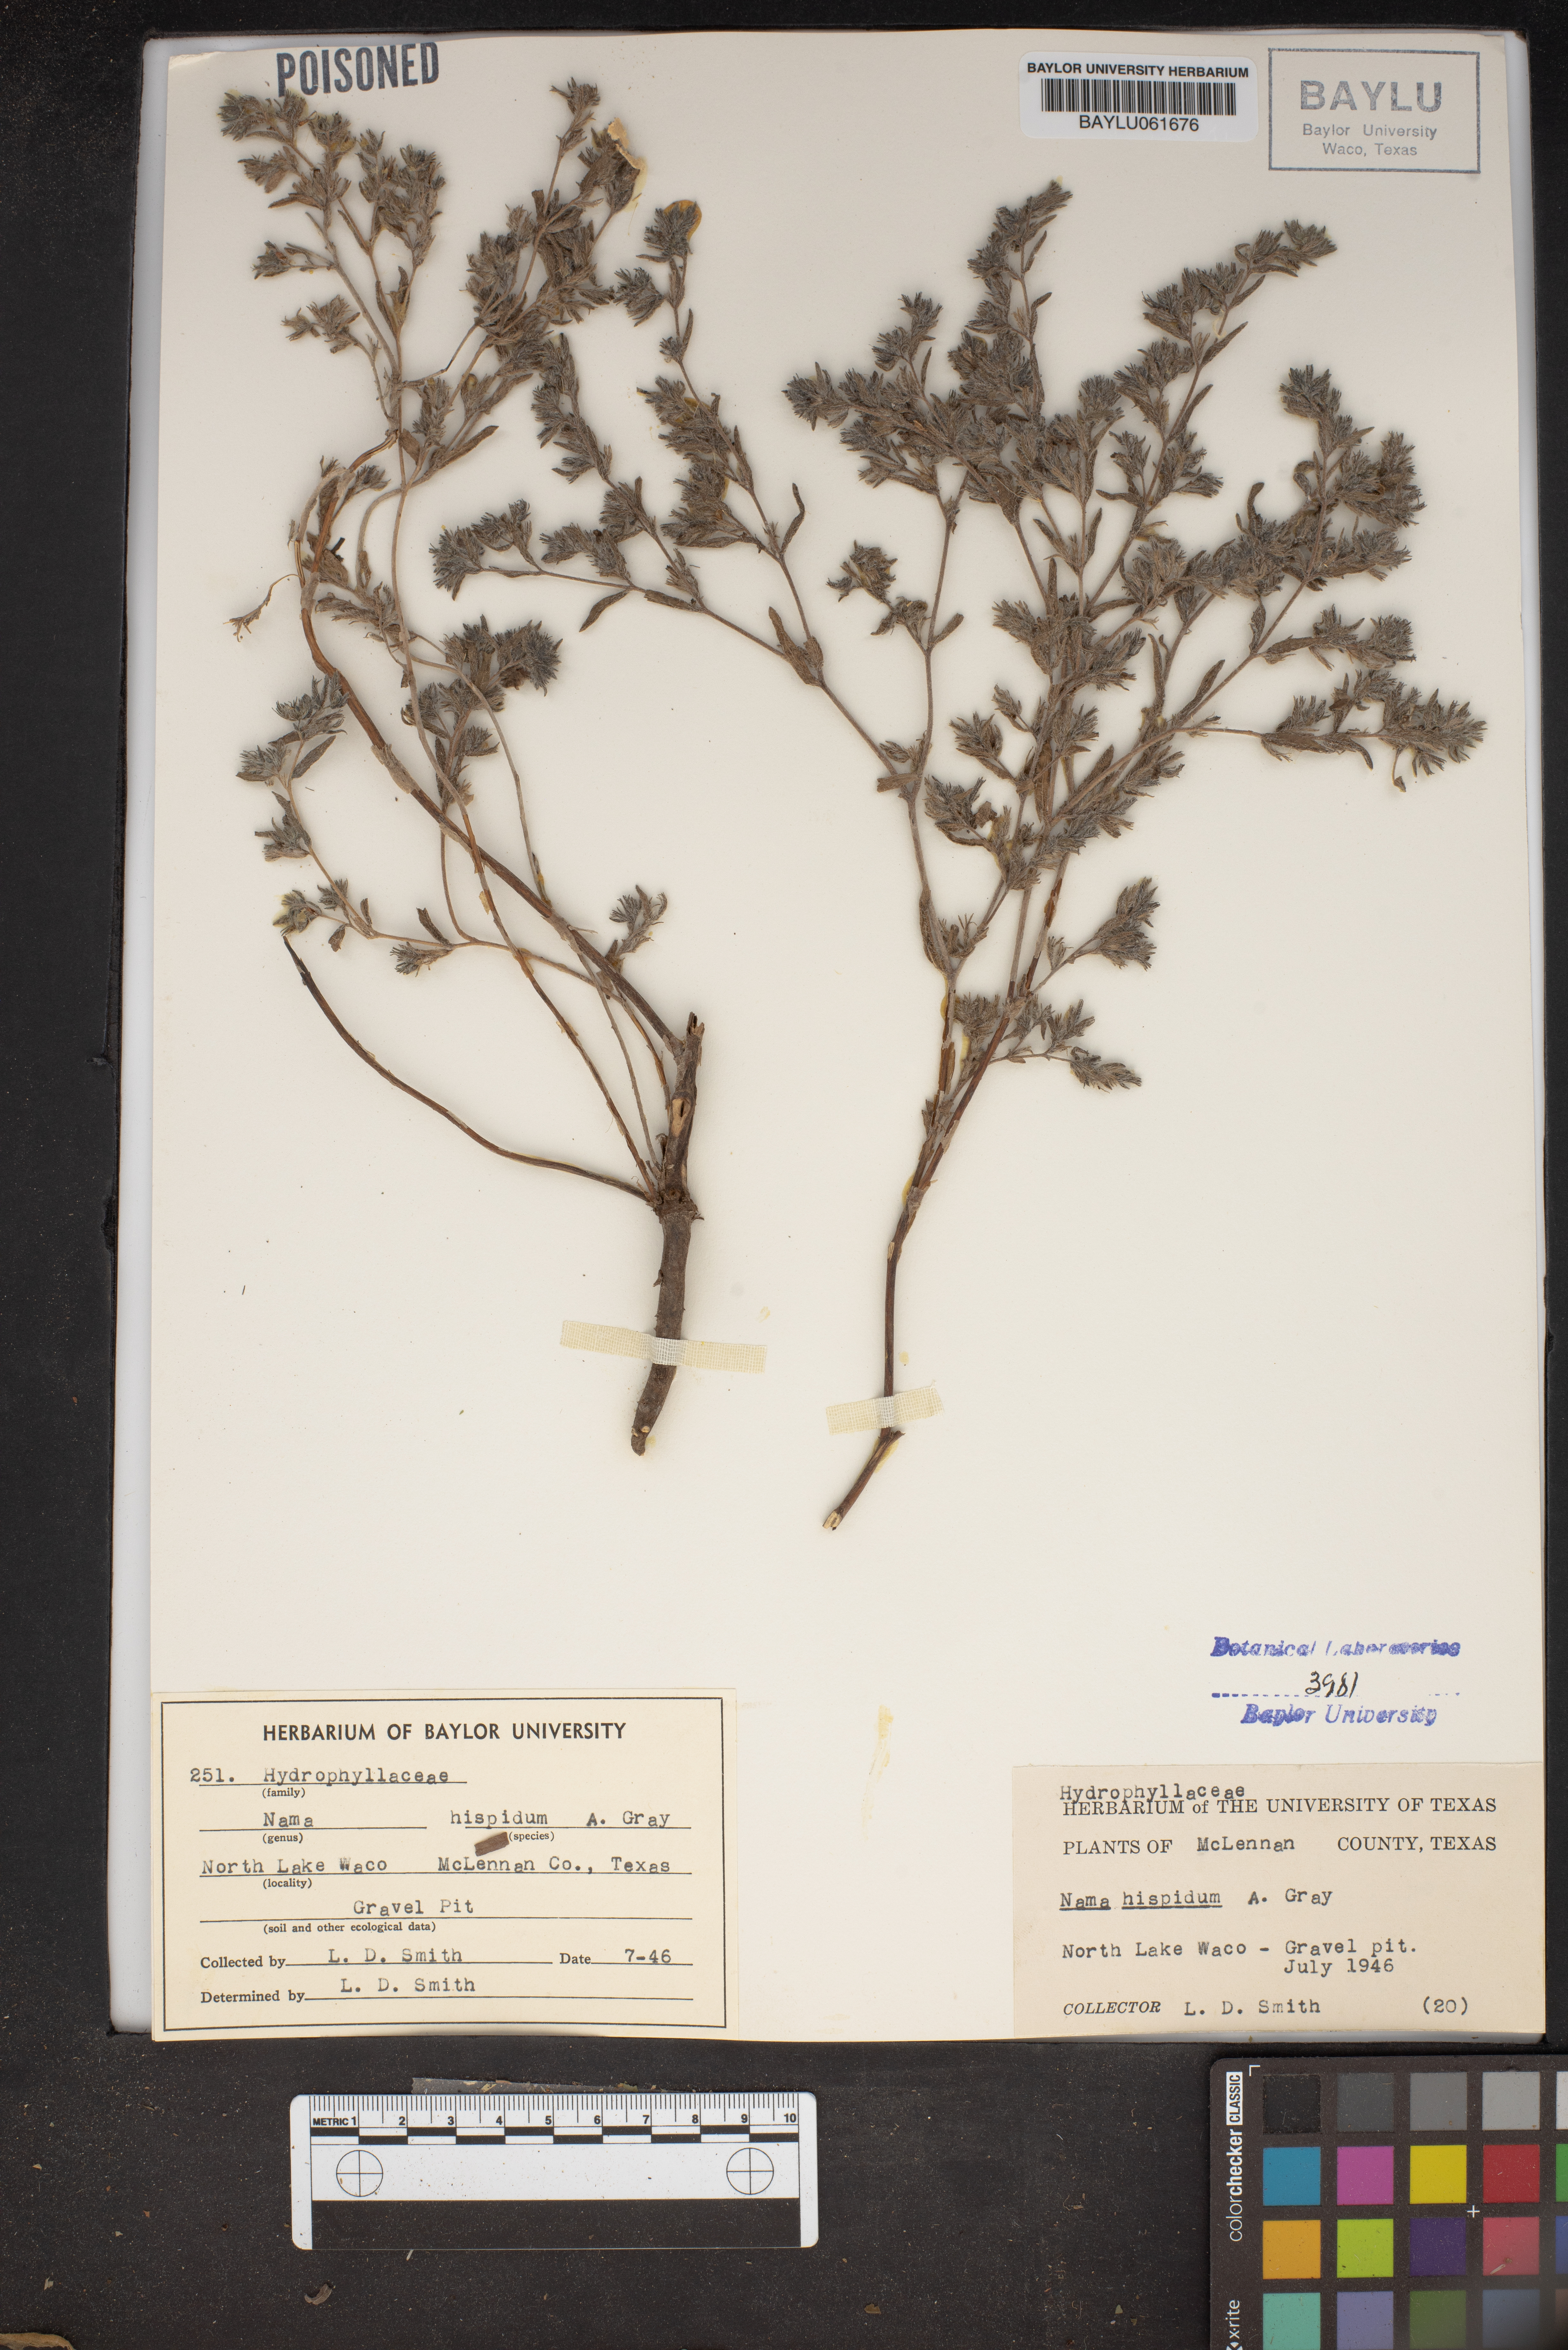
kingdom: Plantae
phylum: Tracheophyta
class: Magnoliopsida
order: Boraginales
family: Namaceae
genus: Nama
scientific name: Nama hispida
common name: Bristly nama
